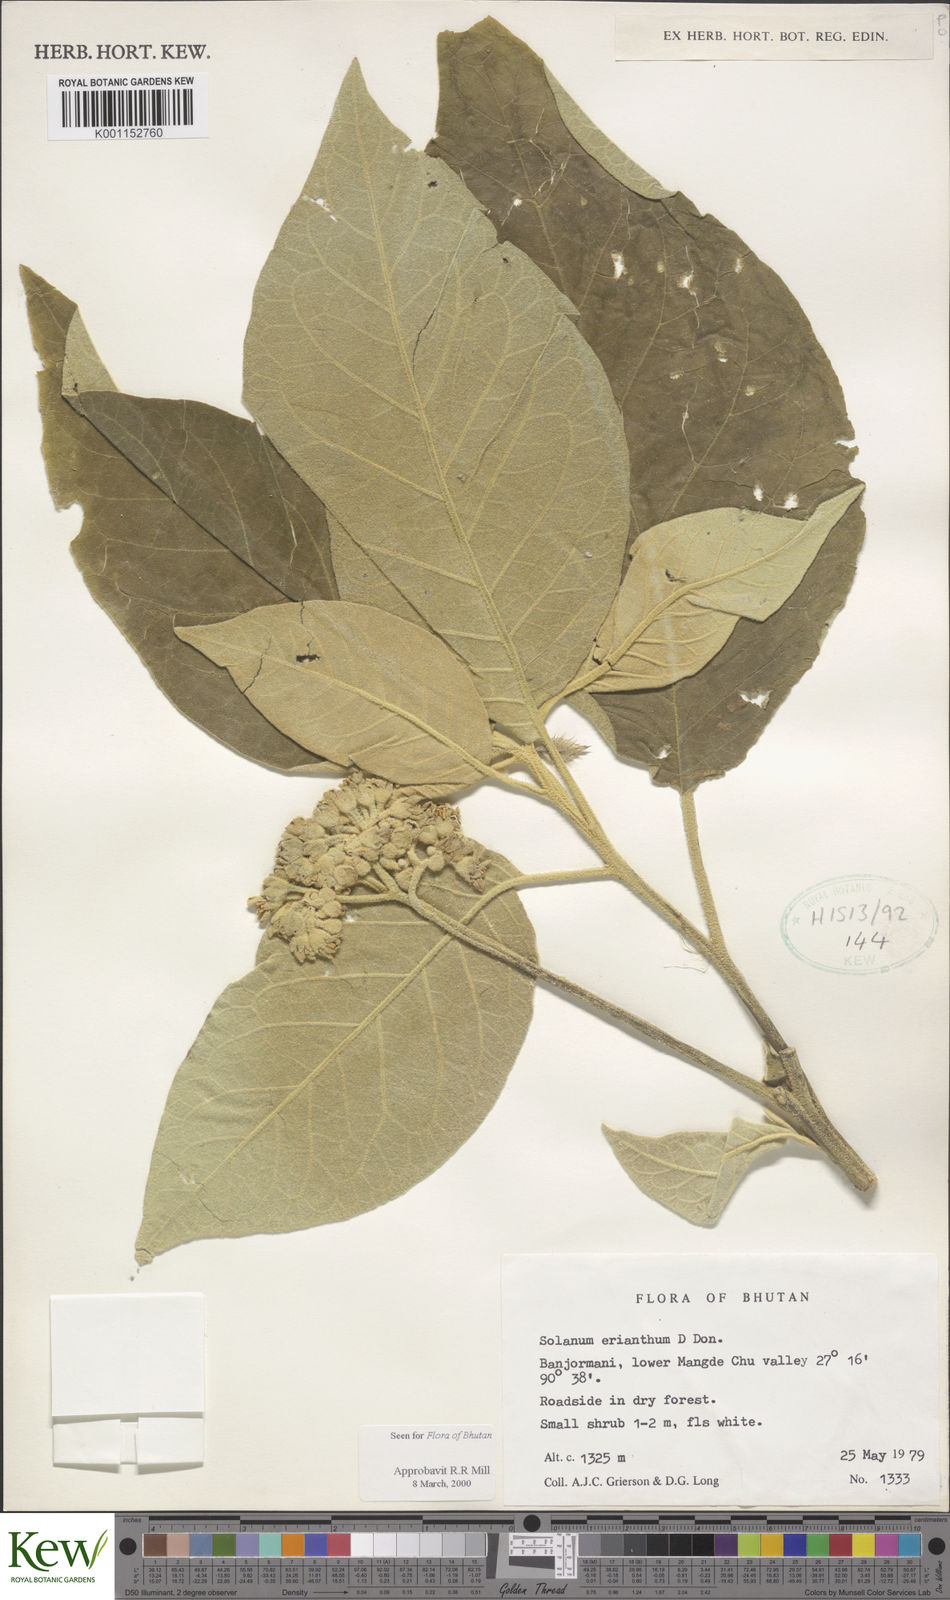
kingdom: Plantae
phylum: Tracheophyta
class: Magnoliopsida
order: Solanales
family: Solanaceae
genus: Solanum
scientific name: Solanum erianthum
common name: Tobacco-tree
